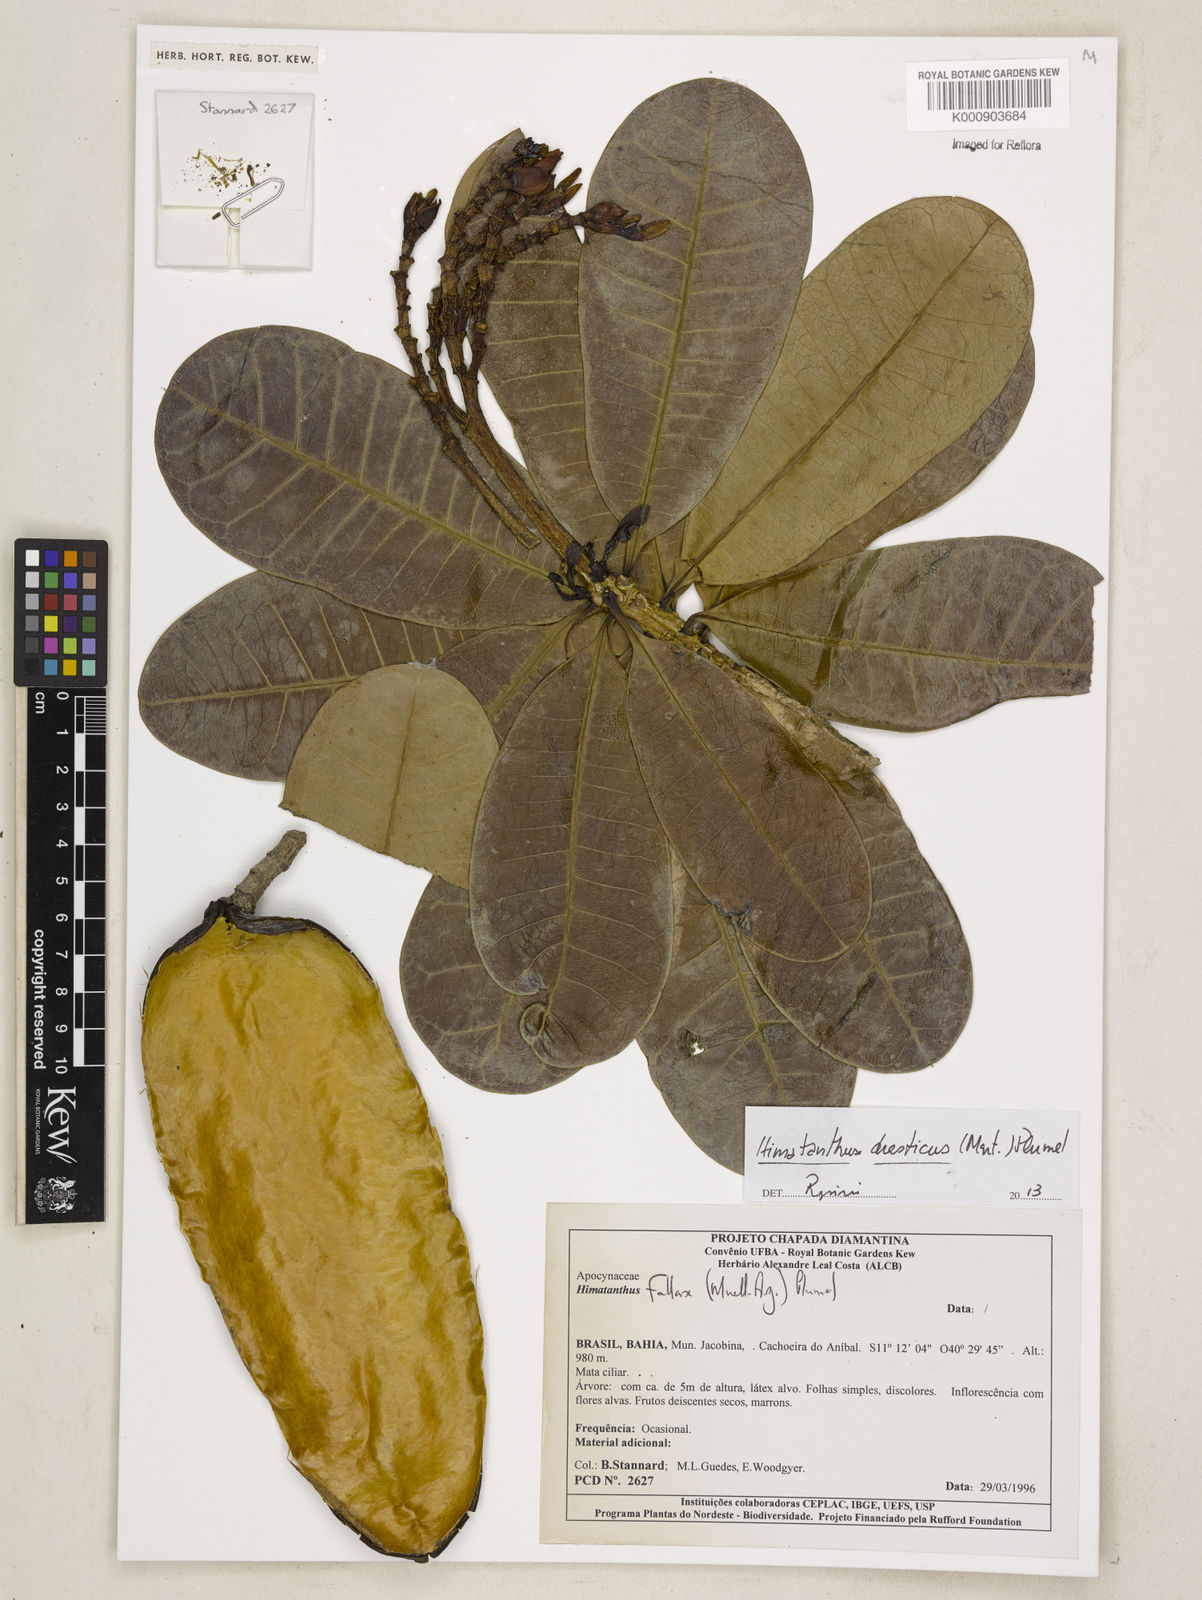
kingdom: Plantae
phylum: Tracheophyta
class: Magnoliopsida
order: Gentianales
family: Apocynaceae
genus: Himatanthus
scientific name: Himatanthus
